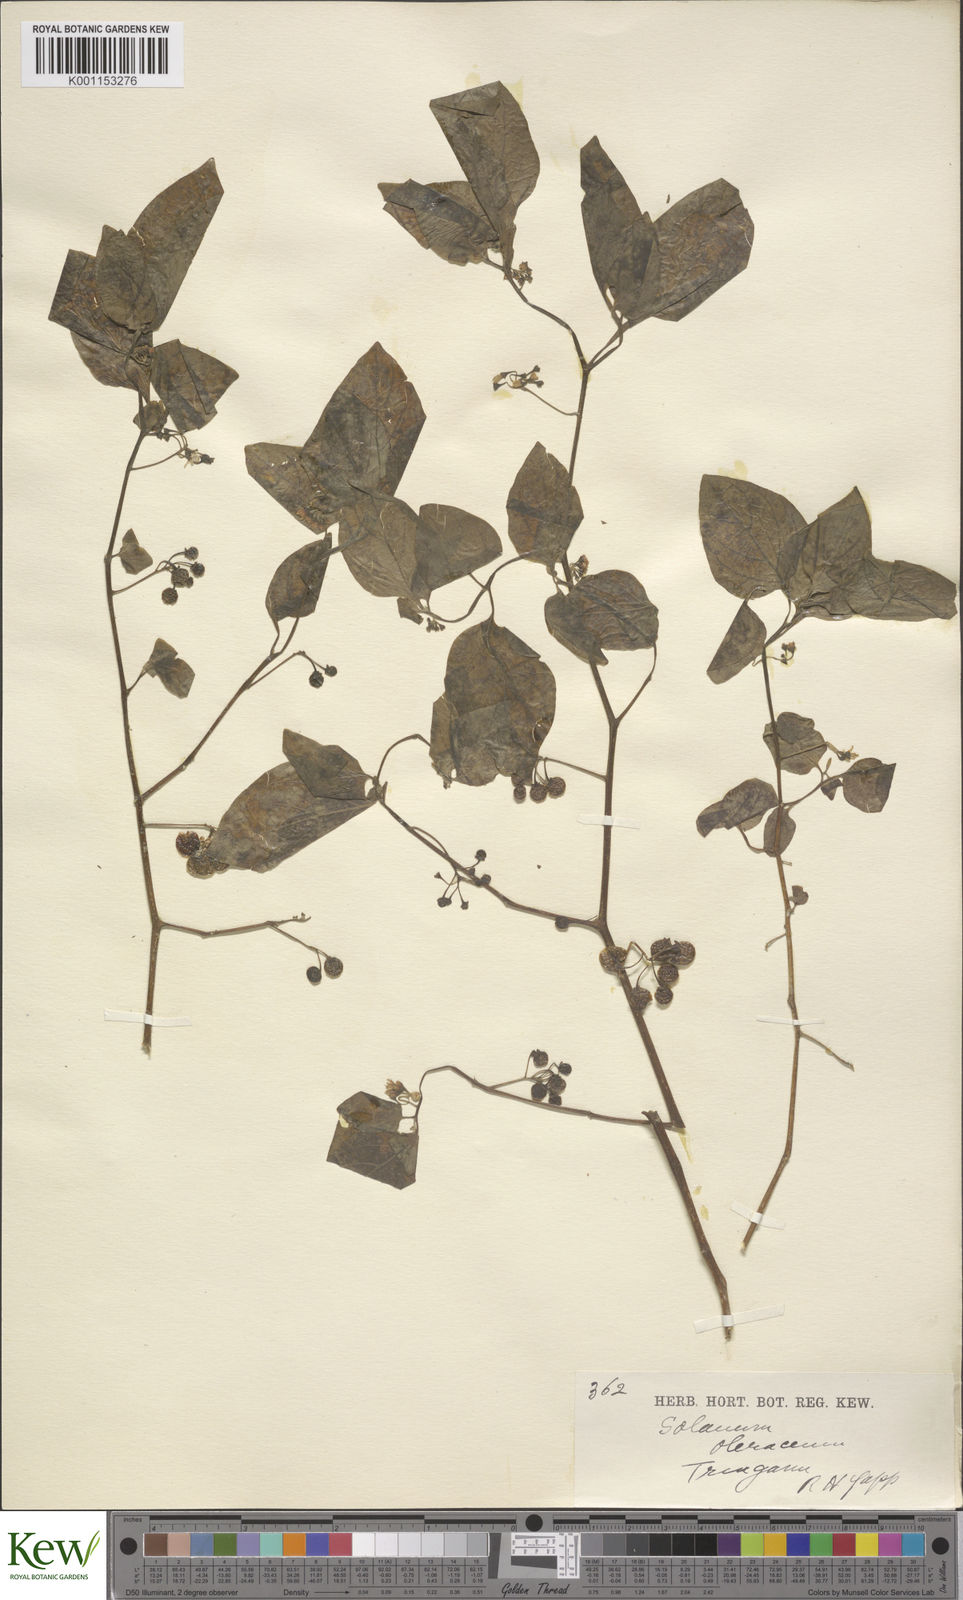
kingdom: Plantae
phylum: Tracheophyta
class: Magnoliopsida
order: Solanales
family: Solanaceae
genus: Solanum
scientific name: Solanum nigrum
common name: Black nightshade
